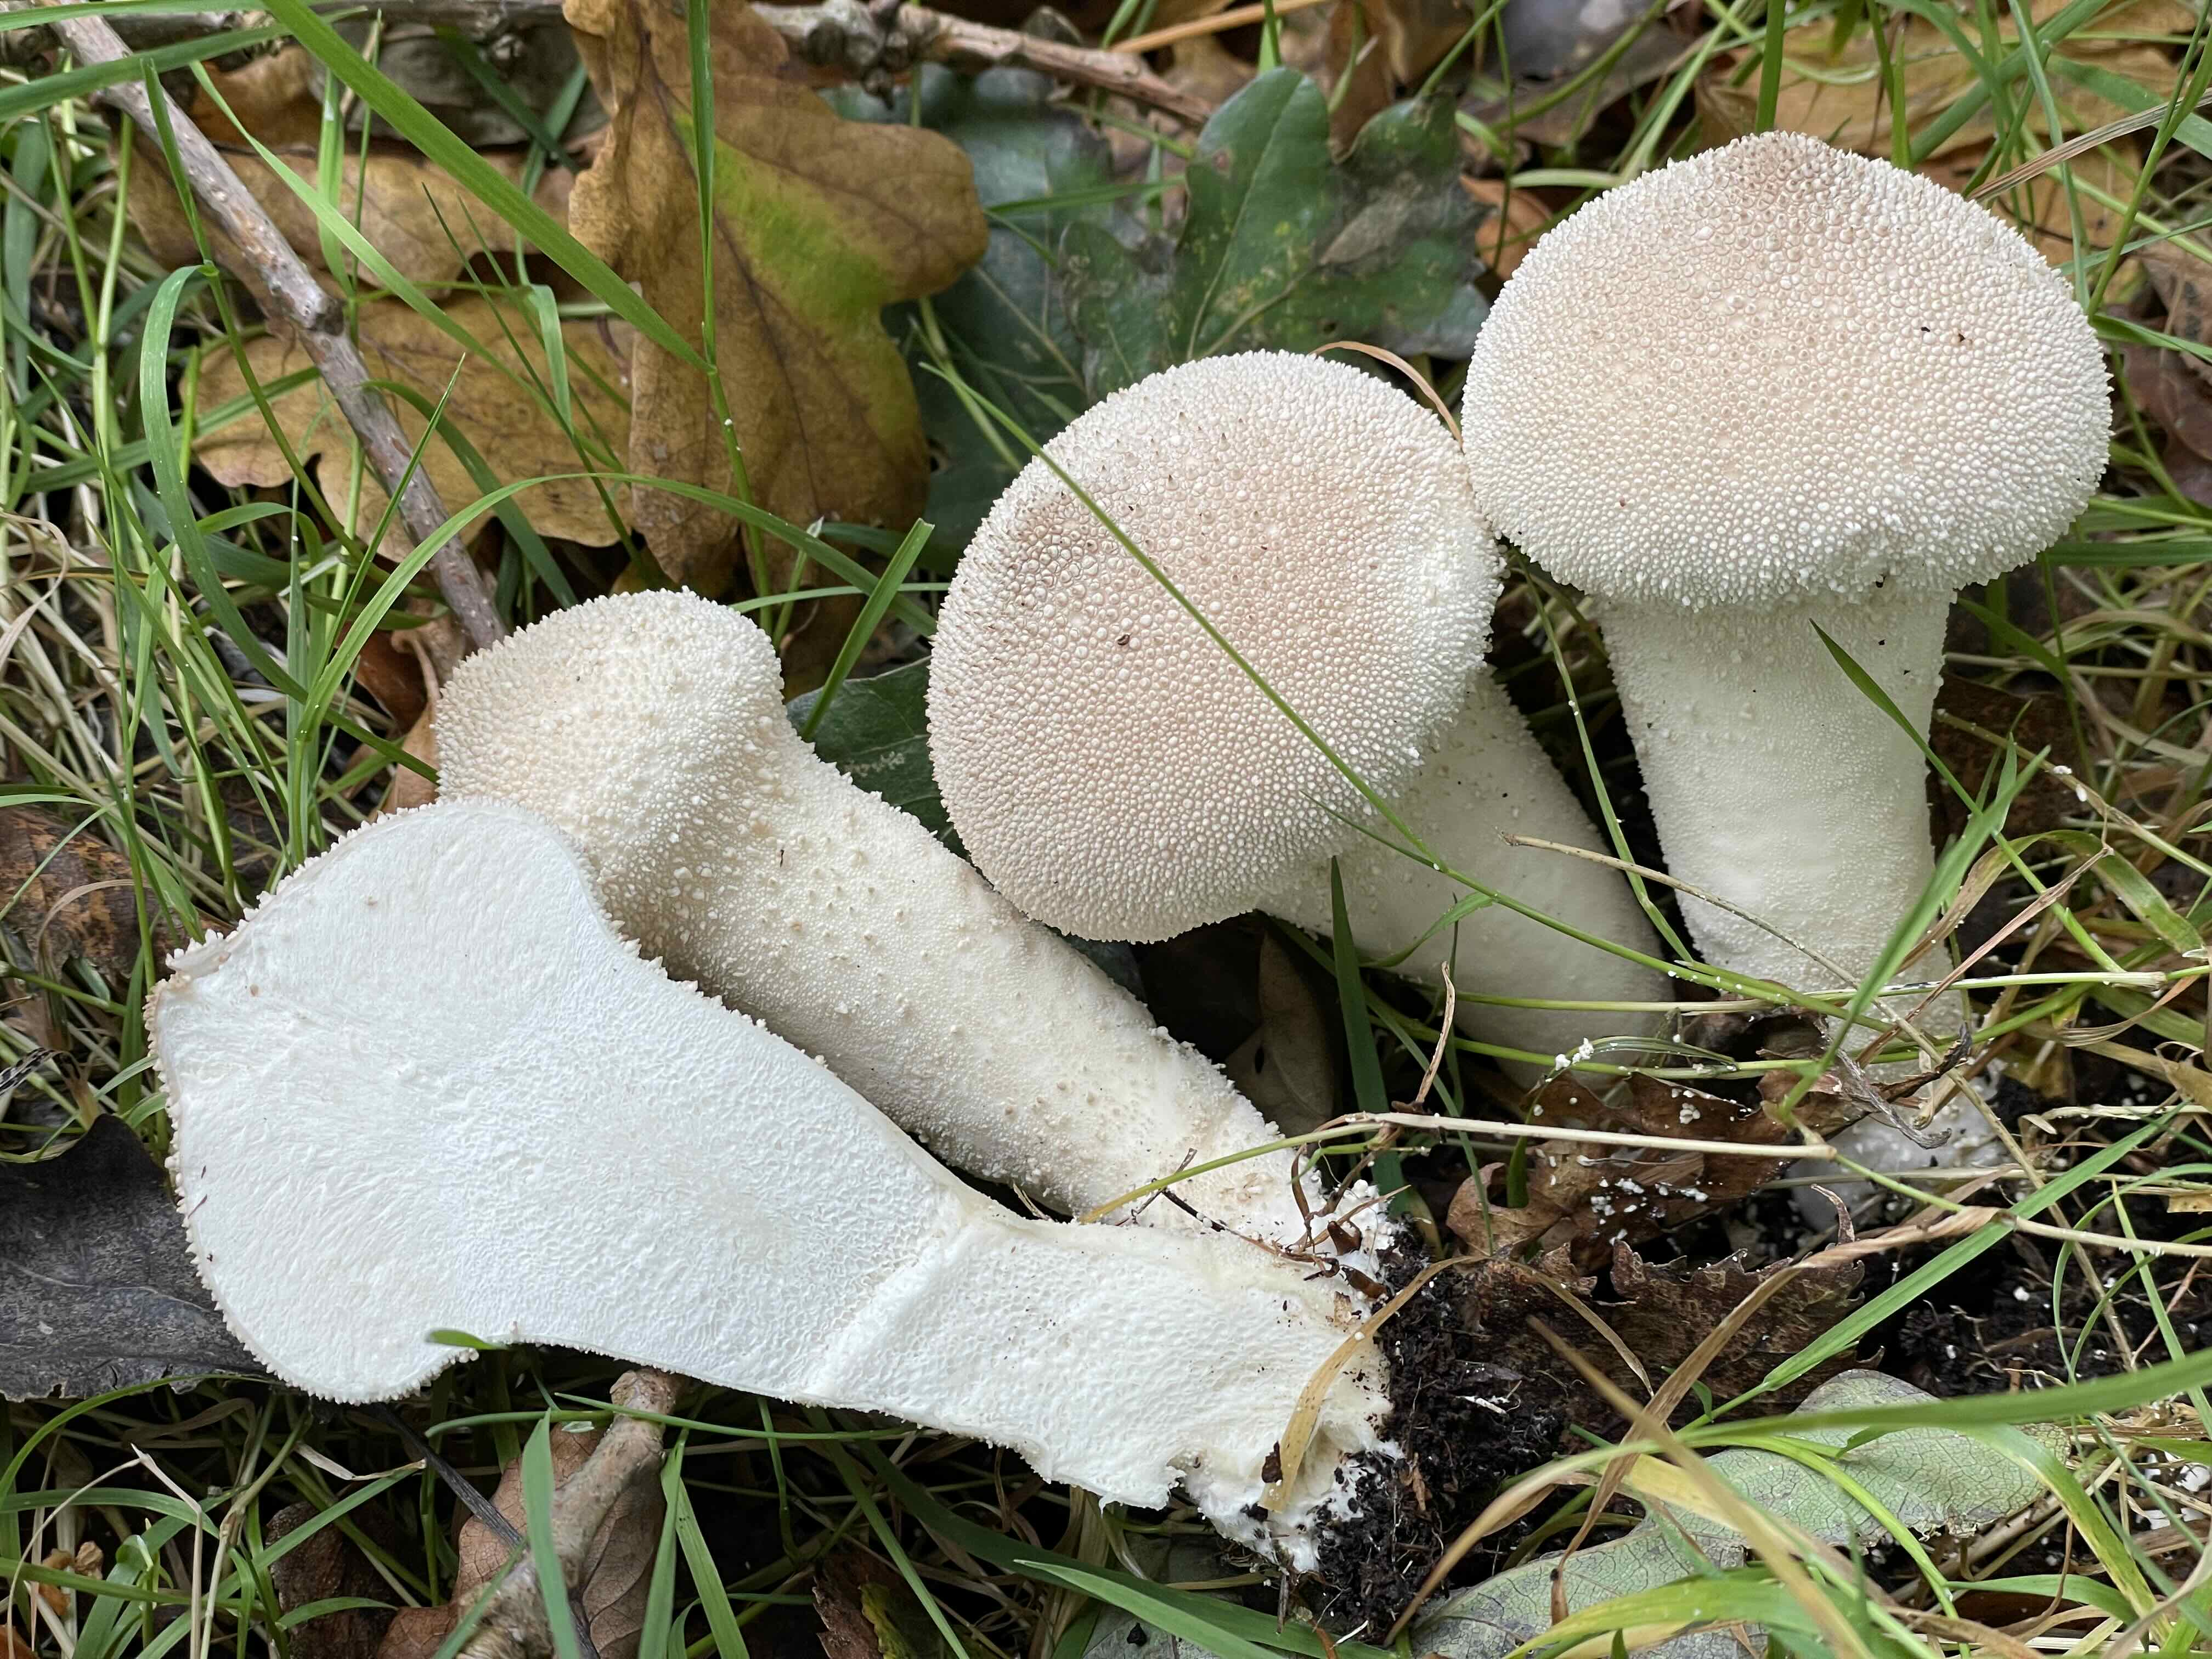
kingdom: Fungi
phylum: Basidiomycota
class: Agaricomycetes
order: Agaricales
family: Lycoperdaceae
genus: Lycoperdon
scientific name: Lycoperdon perlatum
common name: krystal-støvbold
